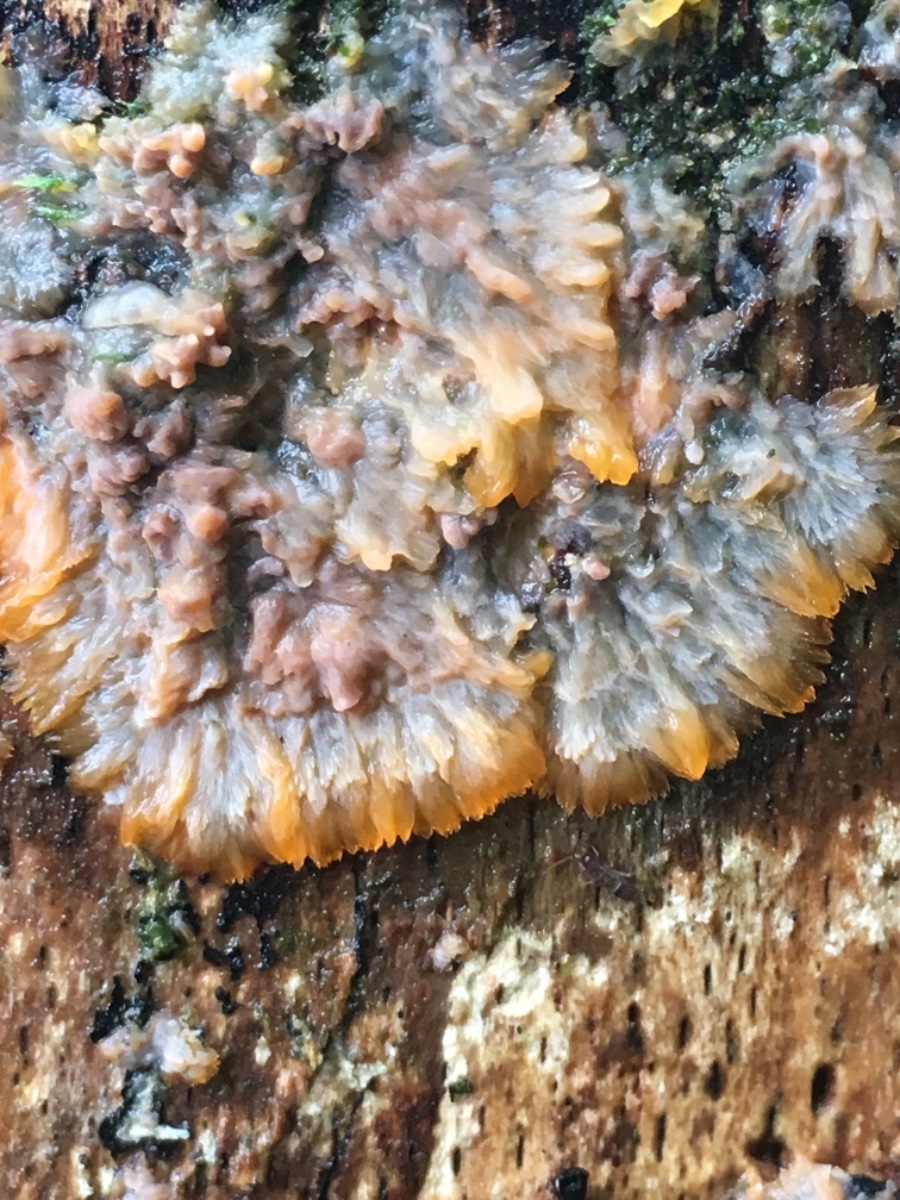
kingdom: Fungi
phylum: Basidiomycota
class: Agaricomycetes
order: Polyporales
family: Meruliaceae
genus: Phlebia
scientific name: Phlebia radiata
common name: stråle-åresvamp
